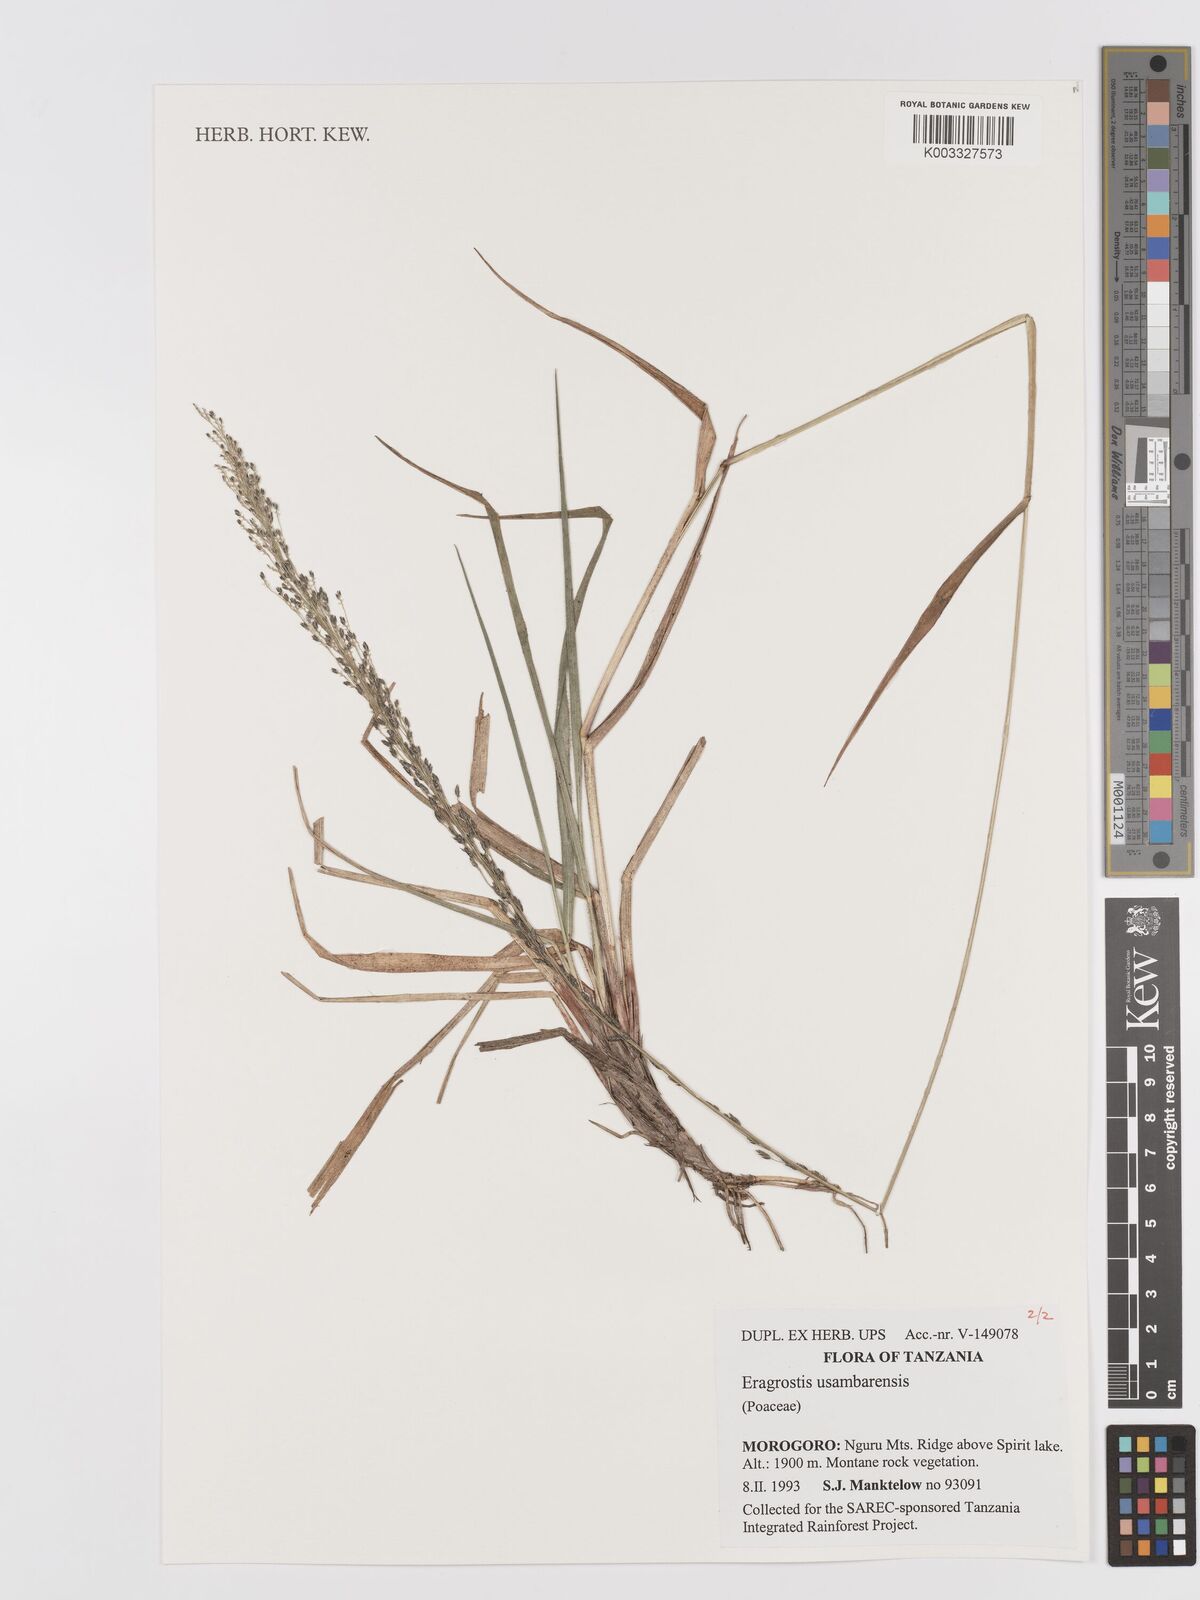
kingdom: Plantae
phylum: Tracheophyta
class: Liliopsida
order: Poales
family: Poaceae
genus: Eragrostis
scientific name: Eragrostis usambarensis
